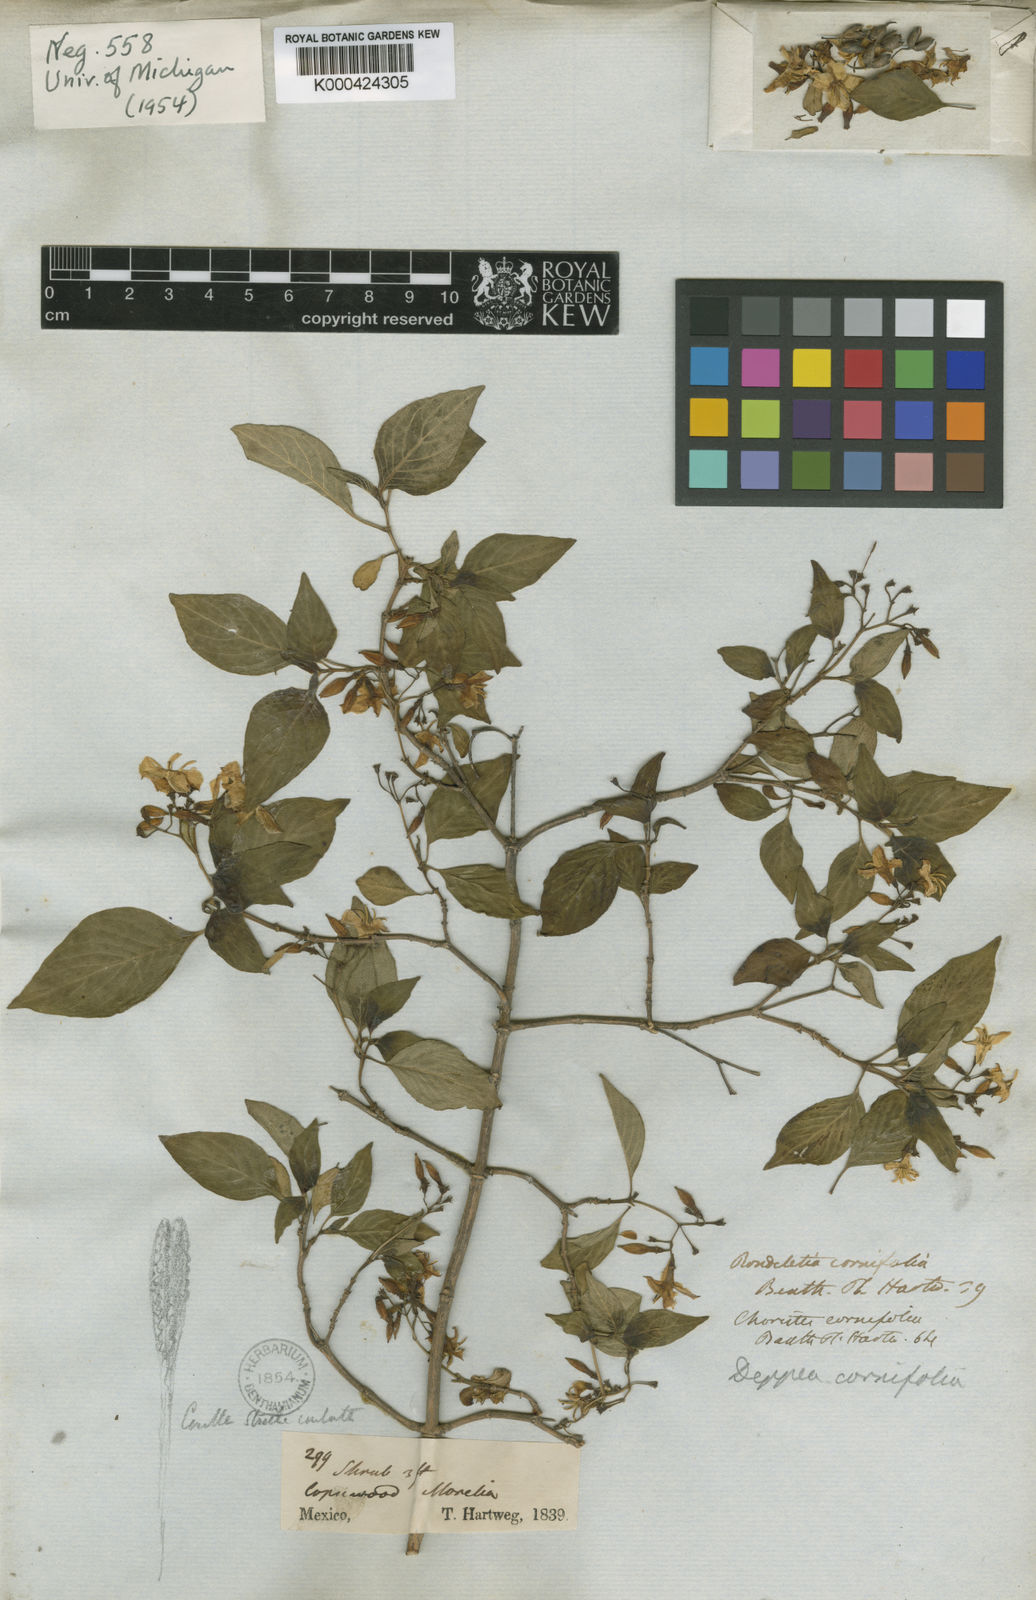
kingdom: Plantae
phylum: Tracheophyta
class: Magnoliopsida
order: Gentianales
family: Rubiaceae
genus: Deppea
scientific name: Deppea cornifolia
